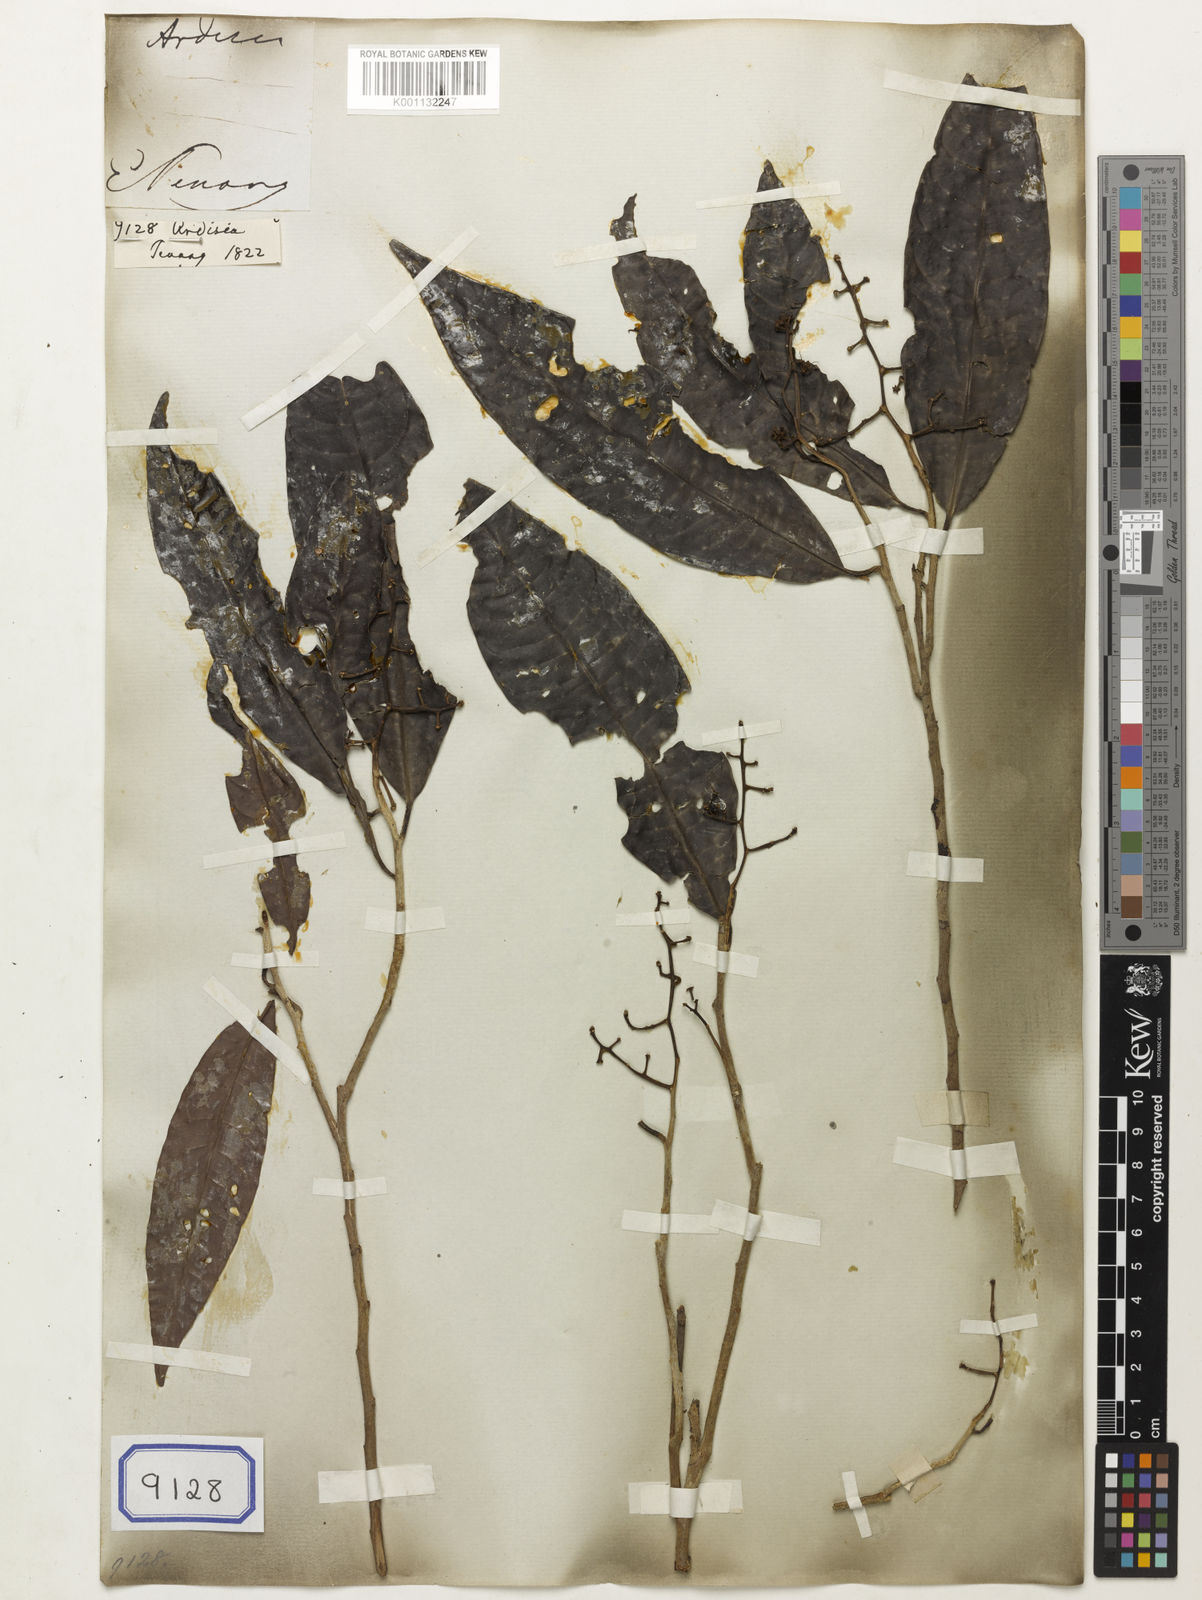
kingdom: Plantae
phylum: Tracheophyta
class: Magnoliopsida
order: Ericales
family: Primulaceae
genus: Ardisia
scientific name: Ardisia
